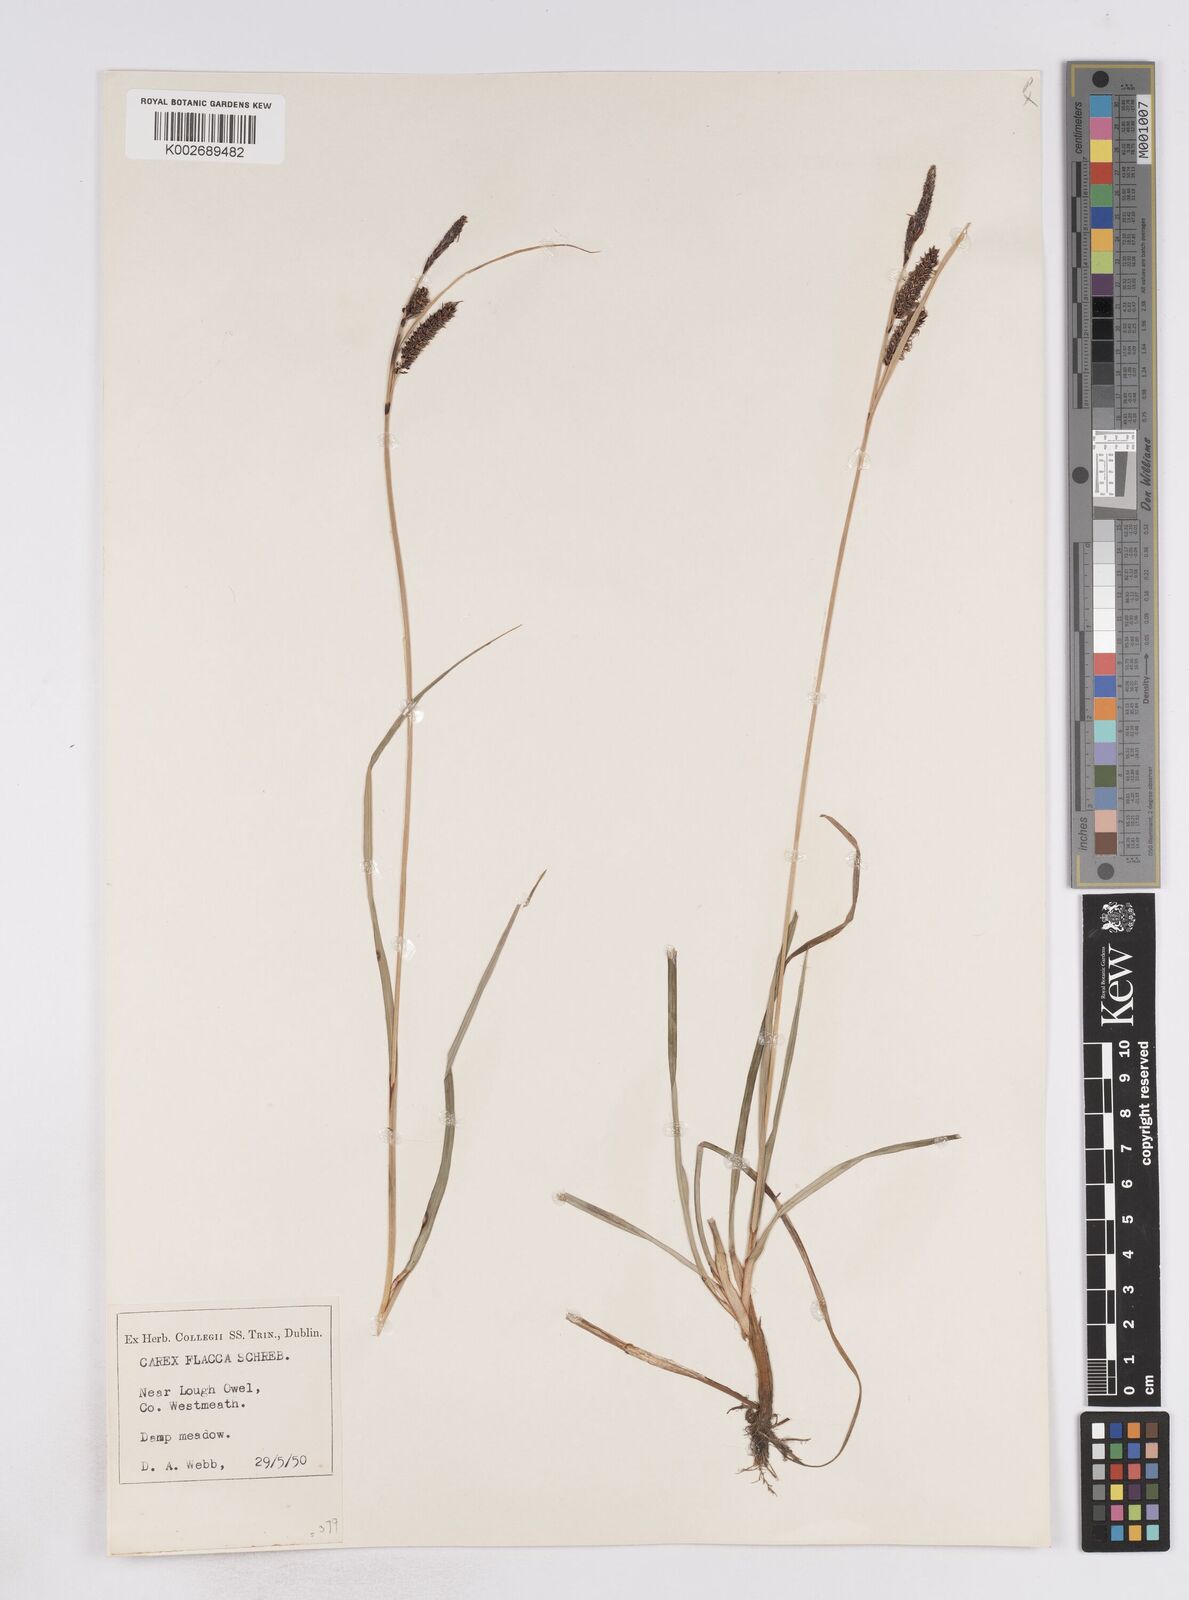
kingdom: Plantae
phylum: Tracheophyta
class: Liliopsida
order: Poales
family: Cyperaceae
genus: Carex
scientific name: Carex flacca
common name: Glaucous sedge
